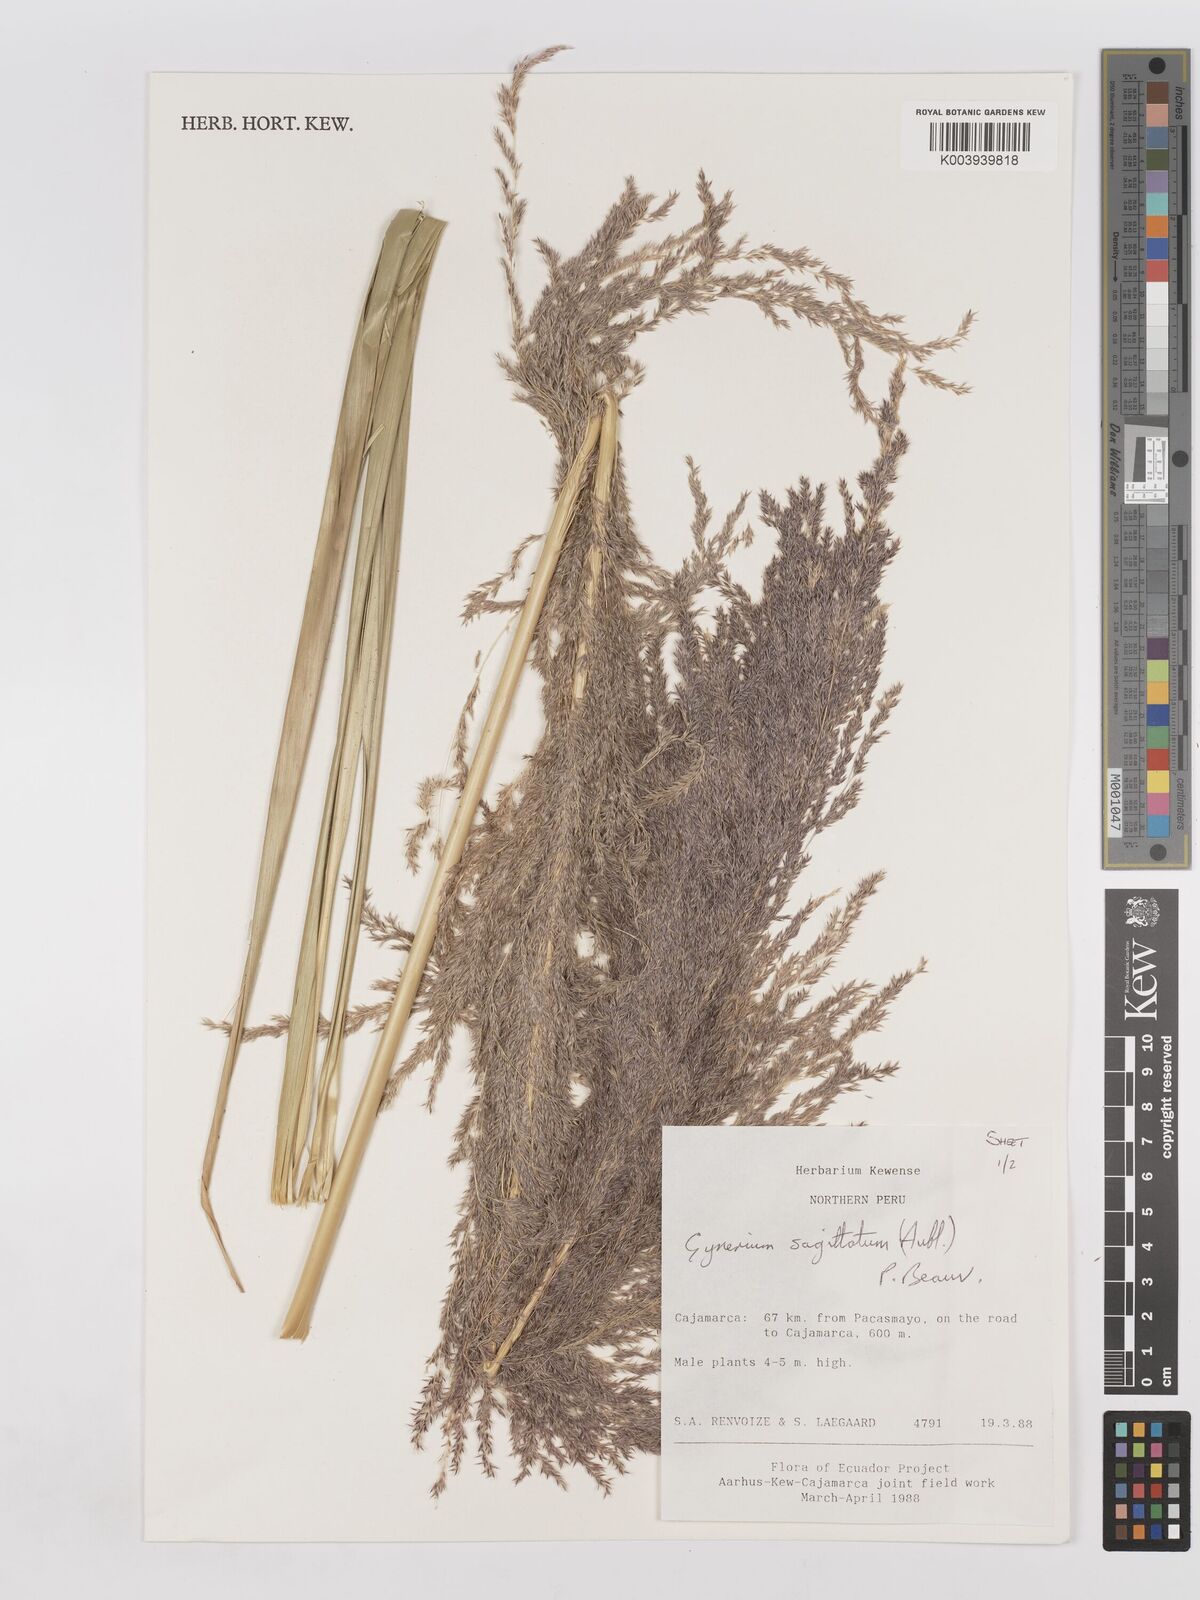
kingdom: Plantae
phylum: Tracheophyta
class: Liliopsida
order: Poales
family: Poaceae
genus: Gynerium
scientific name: Gynerium sagittatum
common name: Wild cane
